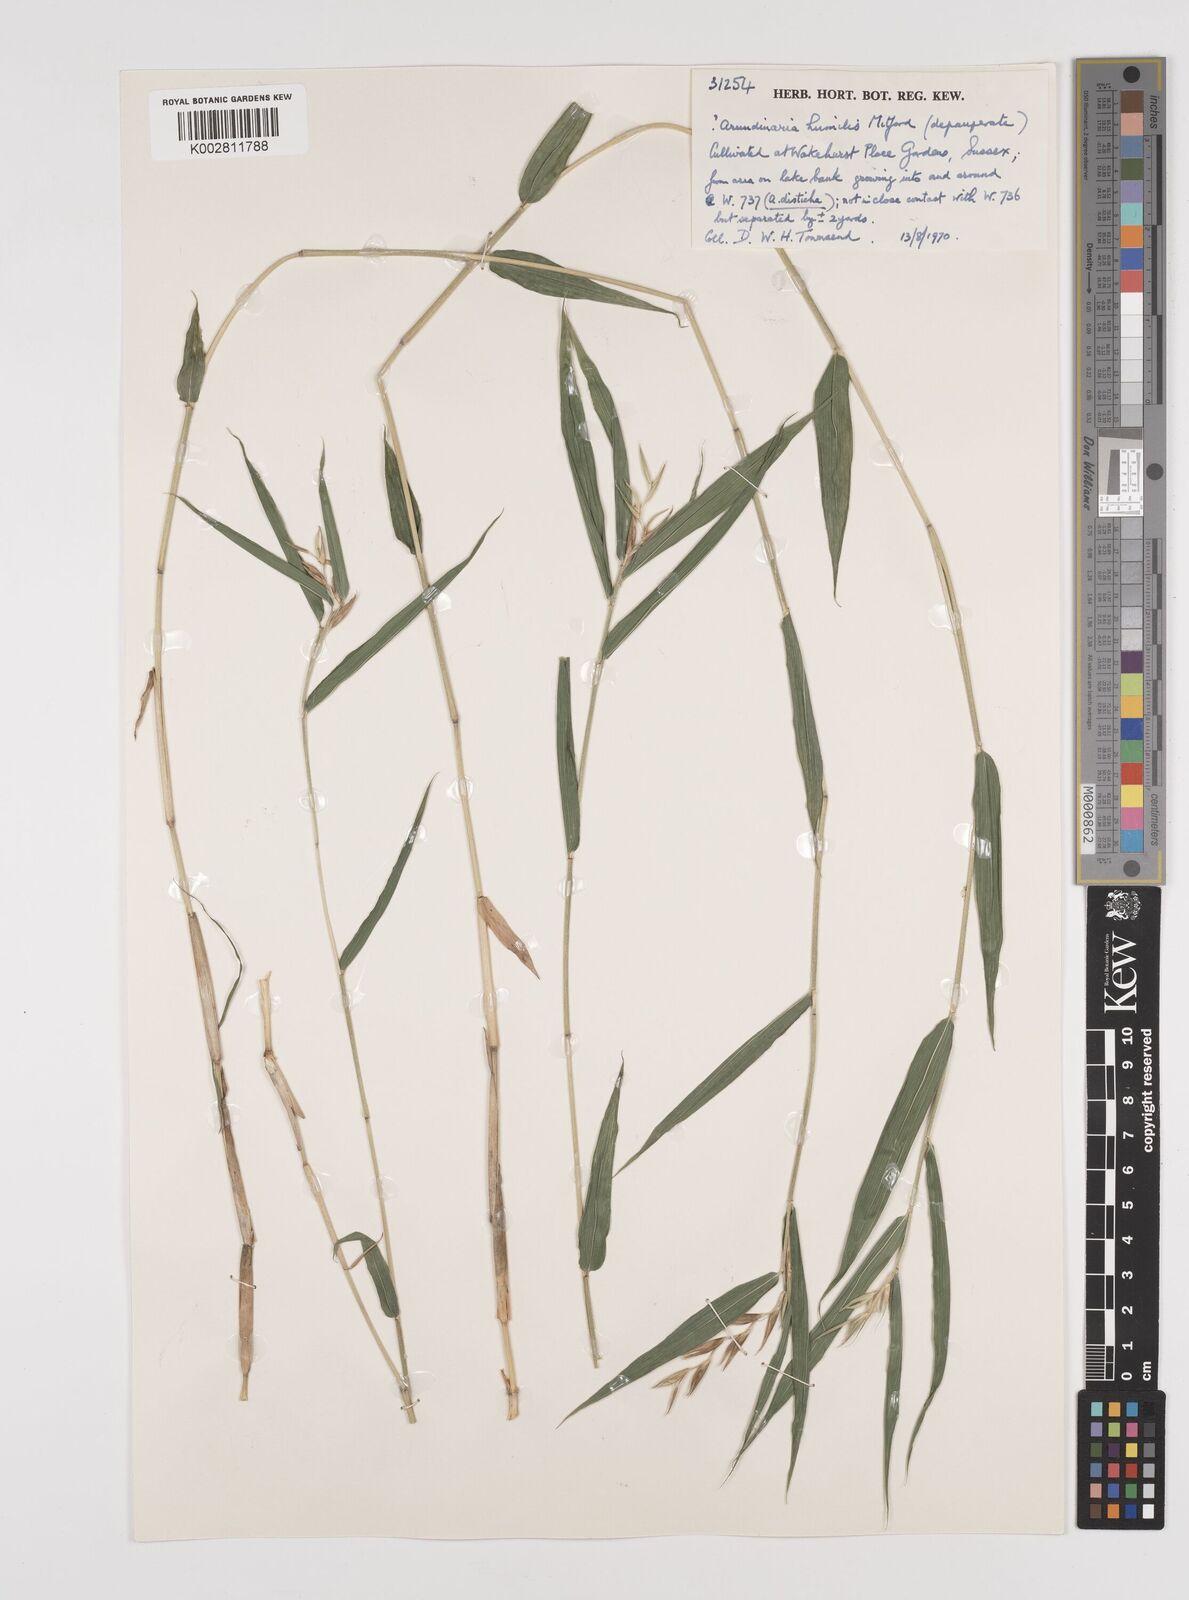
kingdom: Plantae
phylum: Tracheophyta
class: Liliopsida
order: Poales
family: Poaceae
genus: Pseudosasa
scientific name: Pseudosasa humilis
